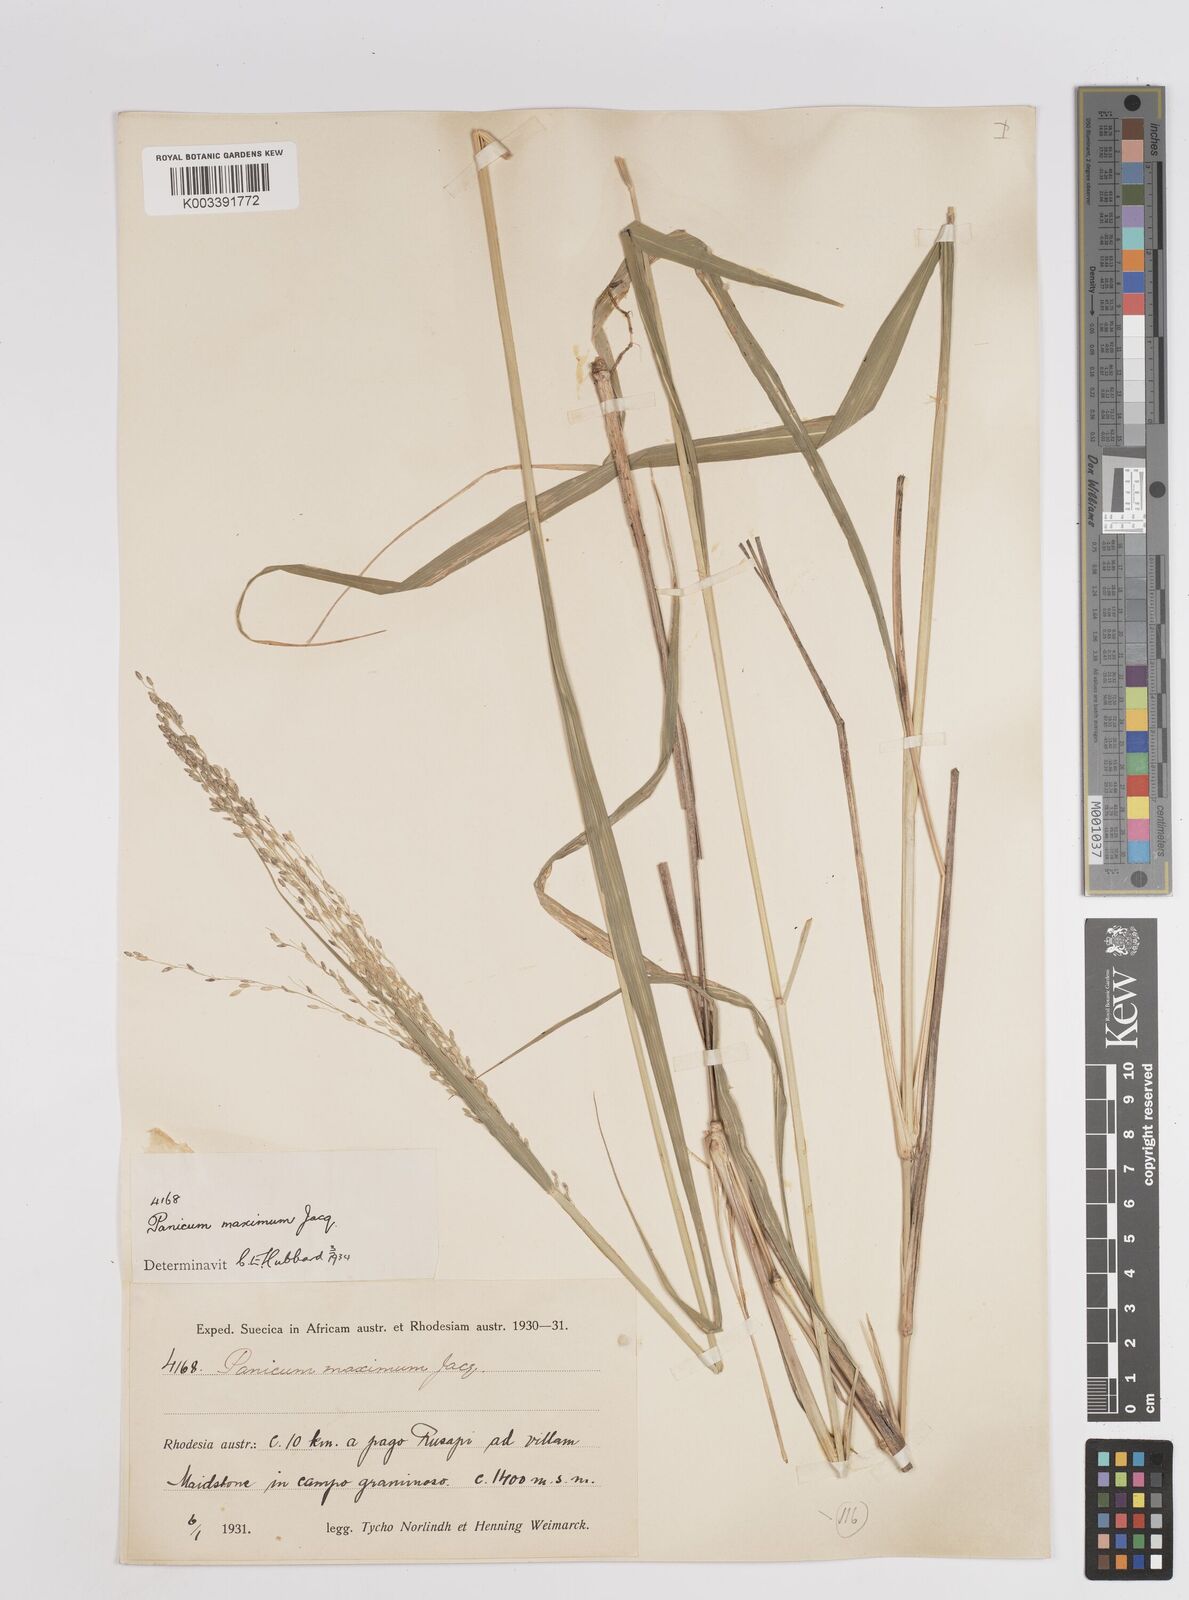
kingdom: Plantae
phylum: Tracheophyta
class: Liliopsida
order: Poales
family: Poaceae
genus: Megathyrsus
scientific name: Megathyrsus maximus
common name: Guineagrass
